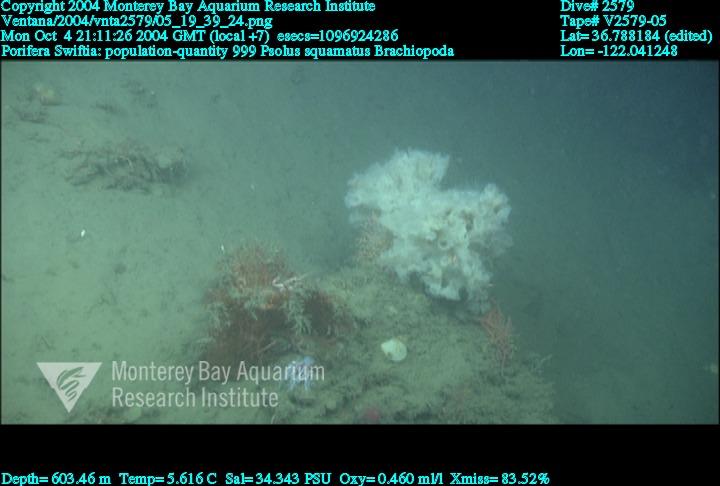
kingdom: Animalia
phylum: Porifera
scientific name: Porifera
